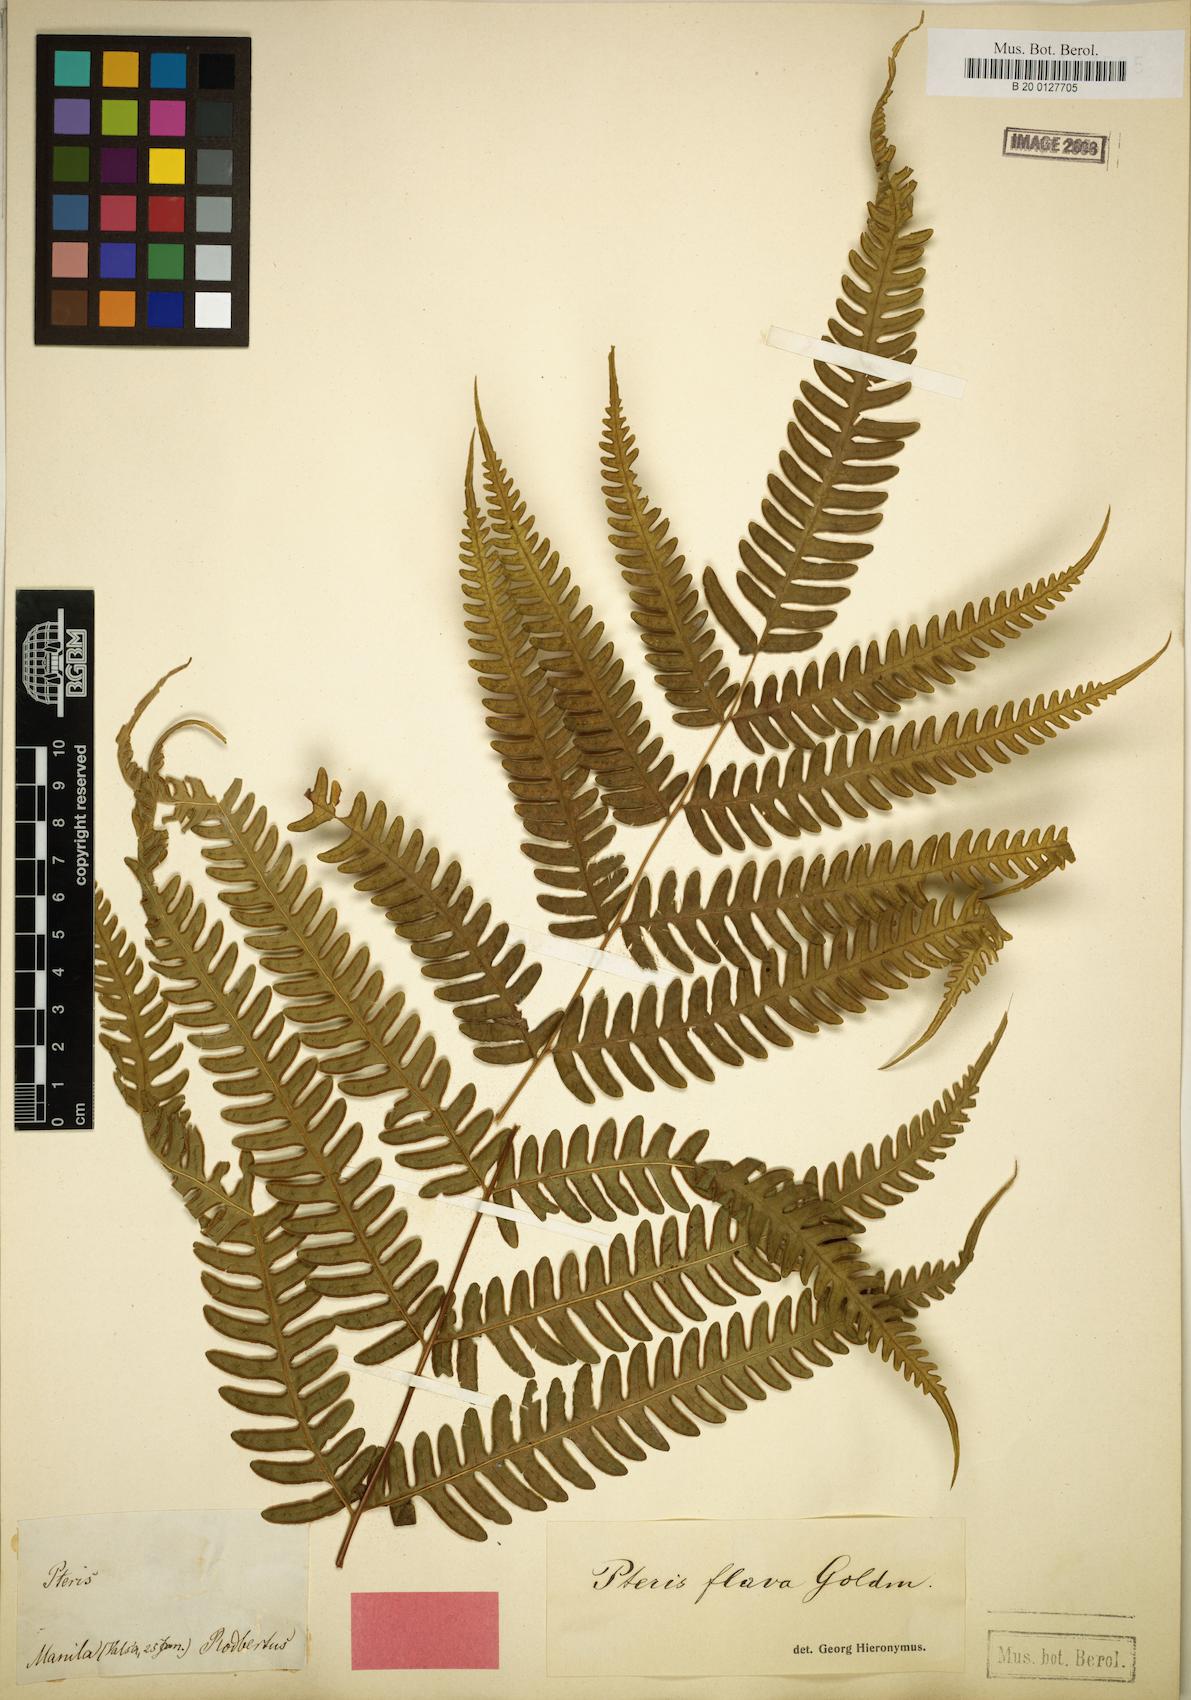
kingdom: Plantae
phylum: Tracheophyta
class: Polypodiopsida
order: Polypodiales
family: Pteridaceae
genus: Pteris
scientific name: Pteris glaucovirens
